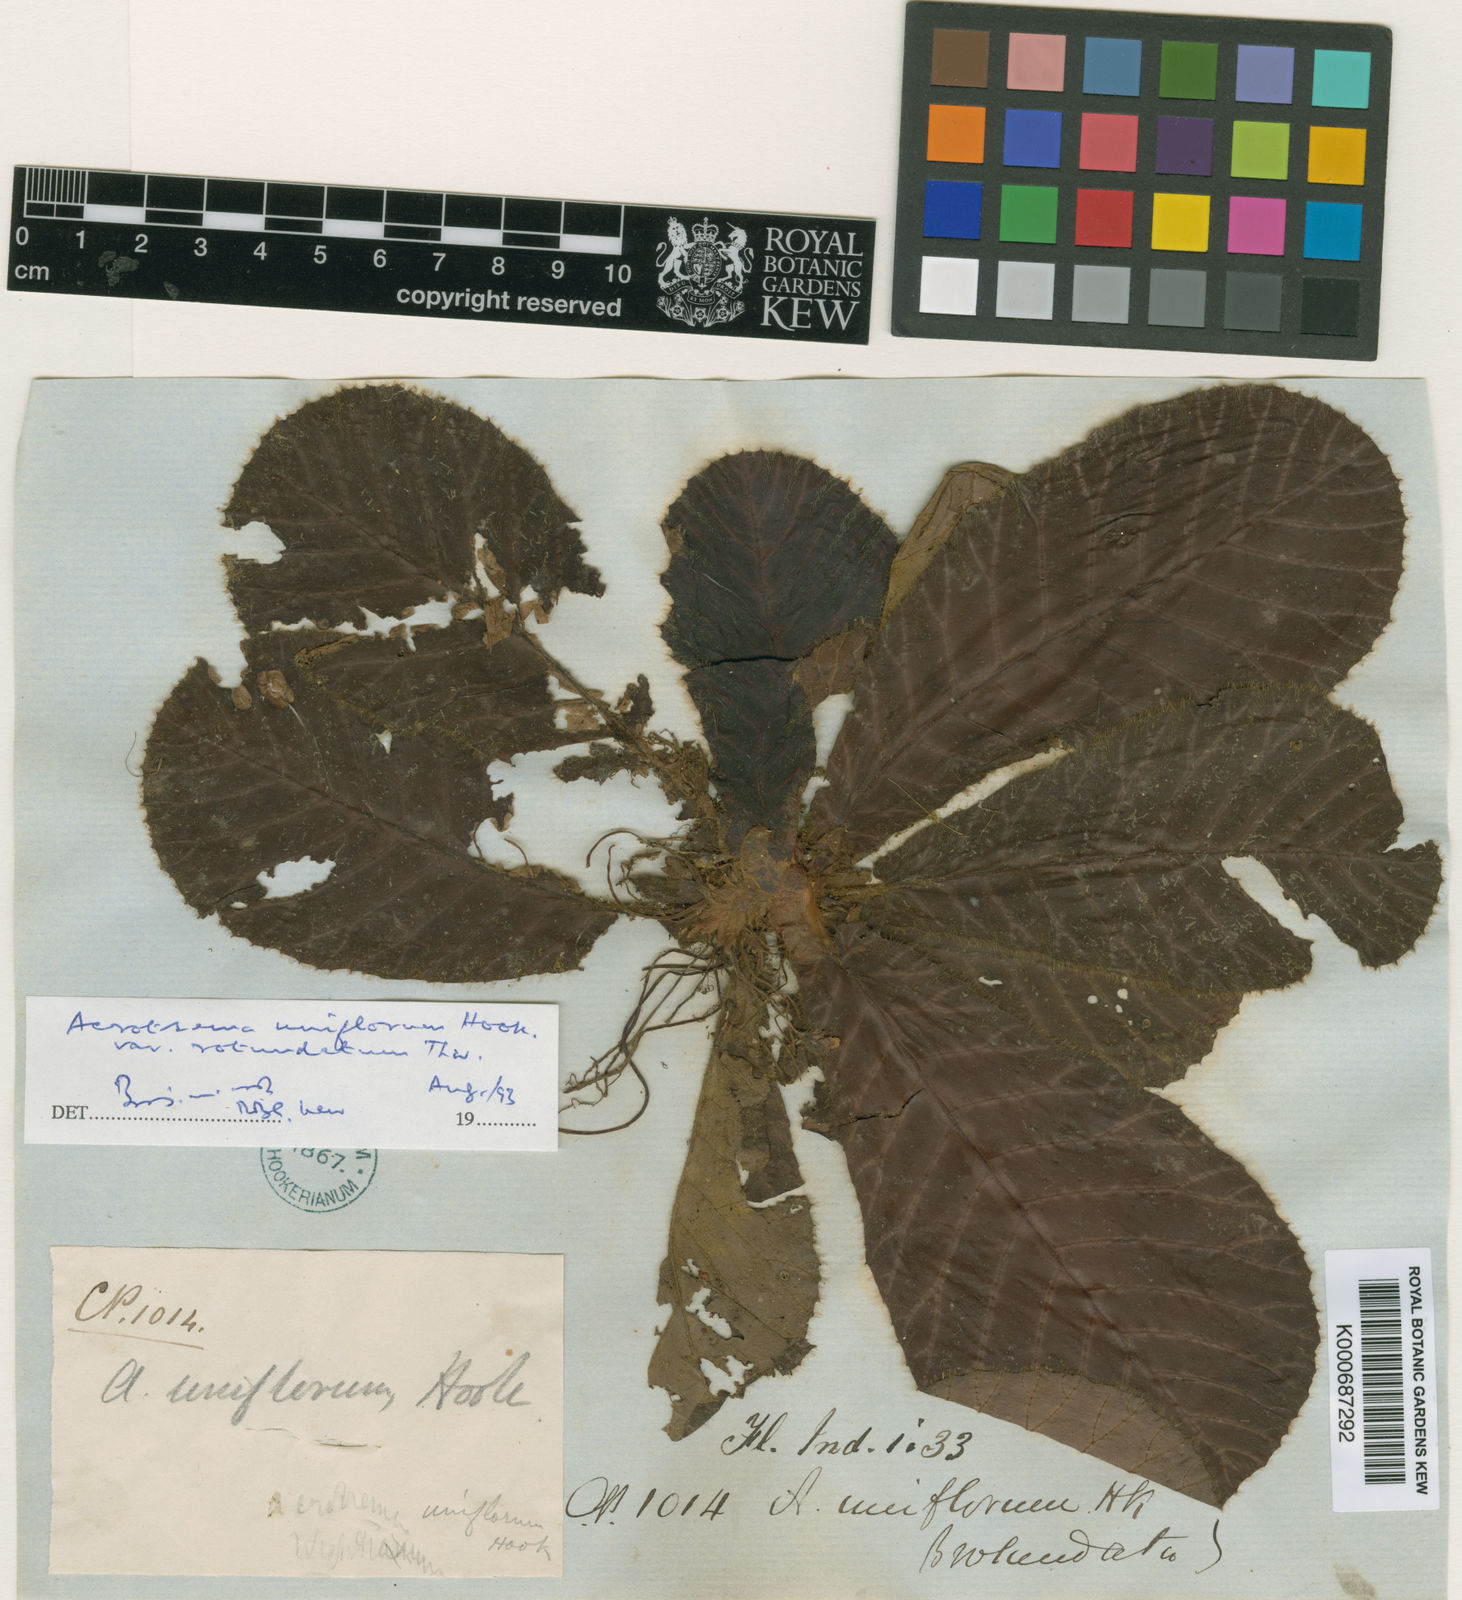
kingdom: Plantae
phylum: Tracheophyta
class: Magnoliopsida
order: Dilleniales
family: Dilleniaceae
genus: Acrotrema
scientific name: Acrotrema uniflorum
